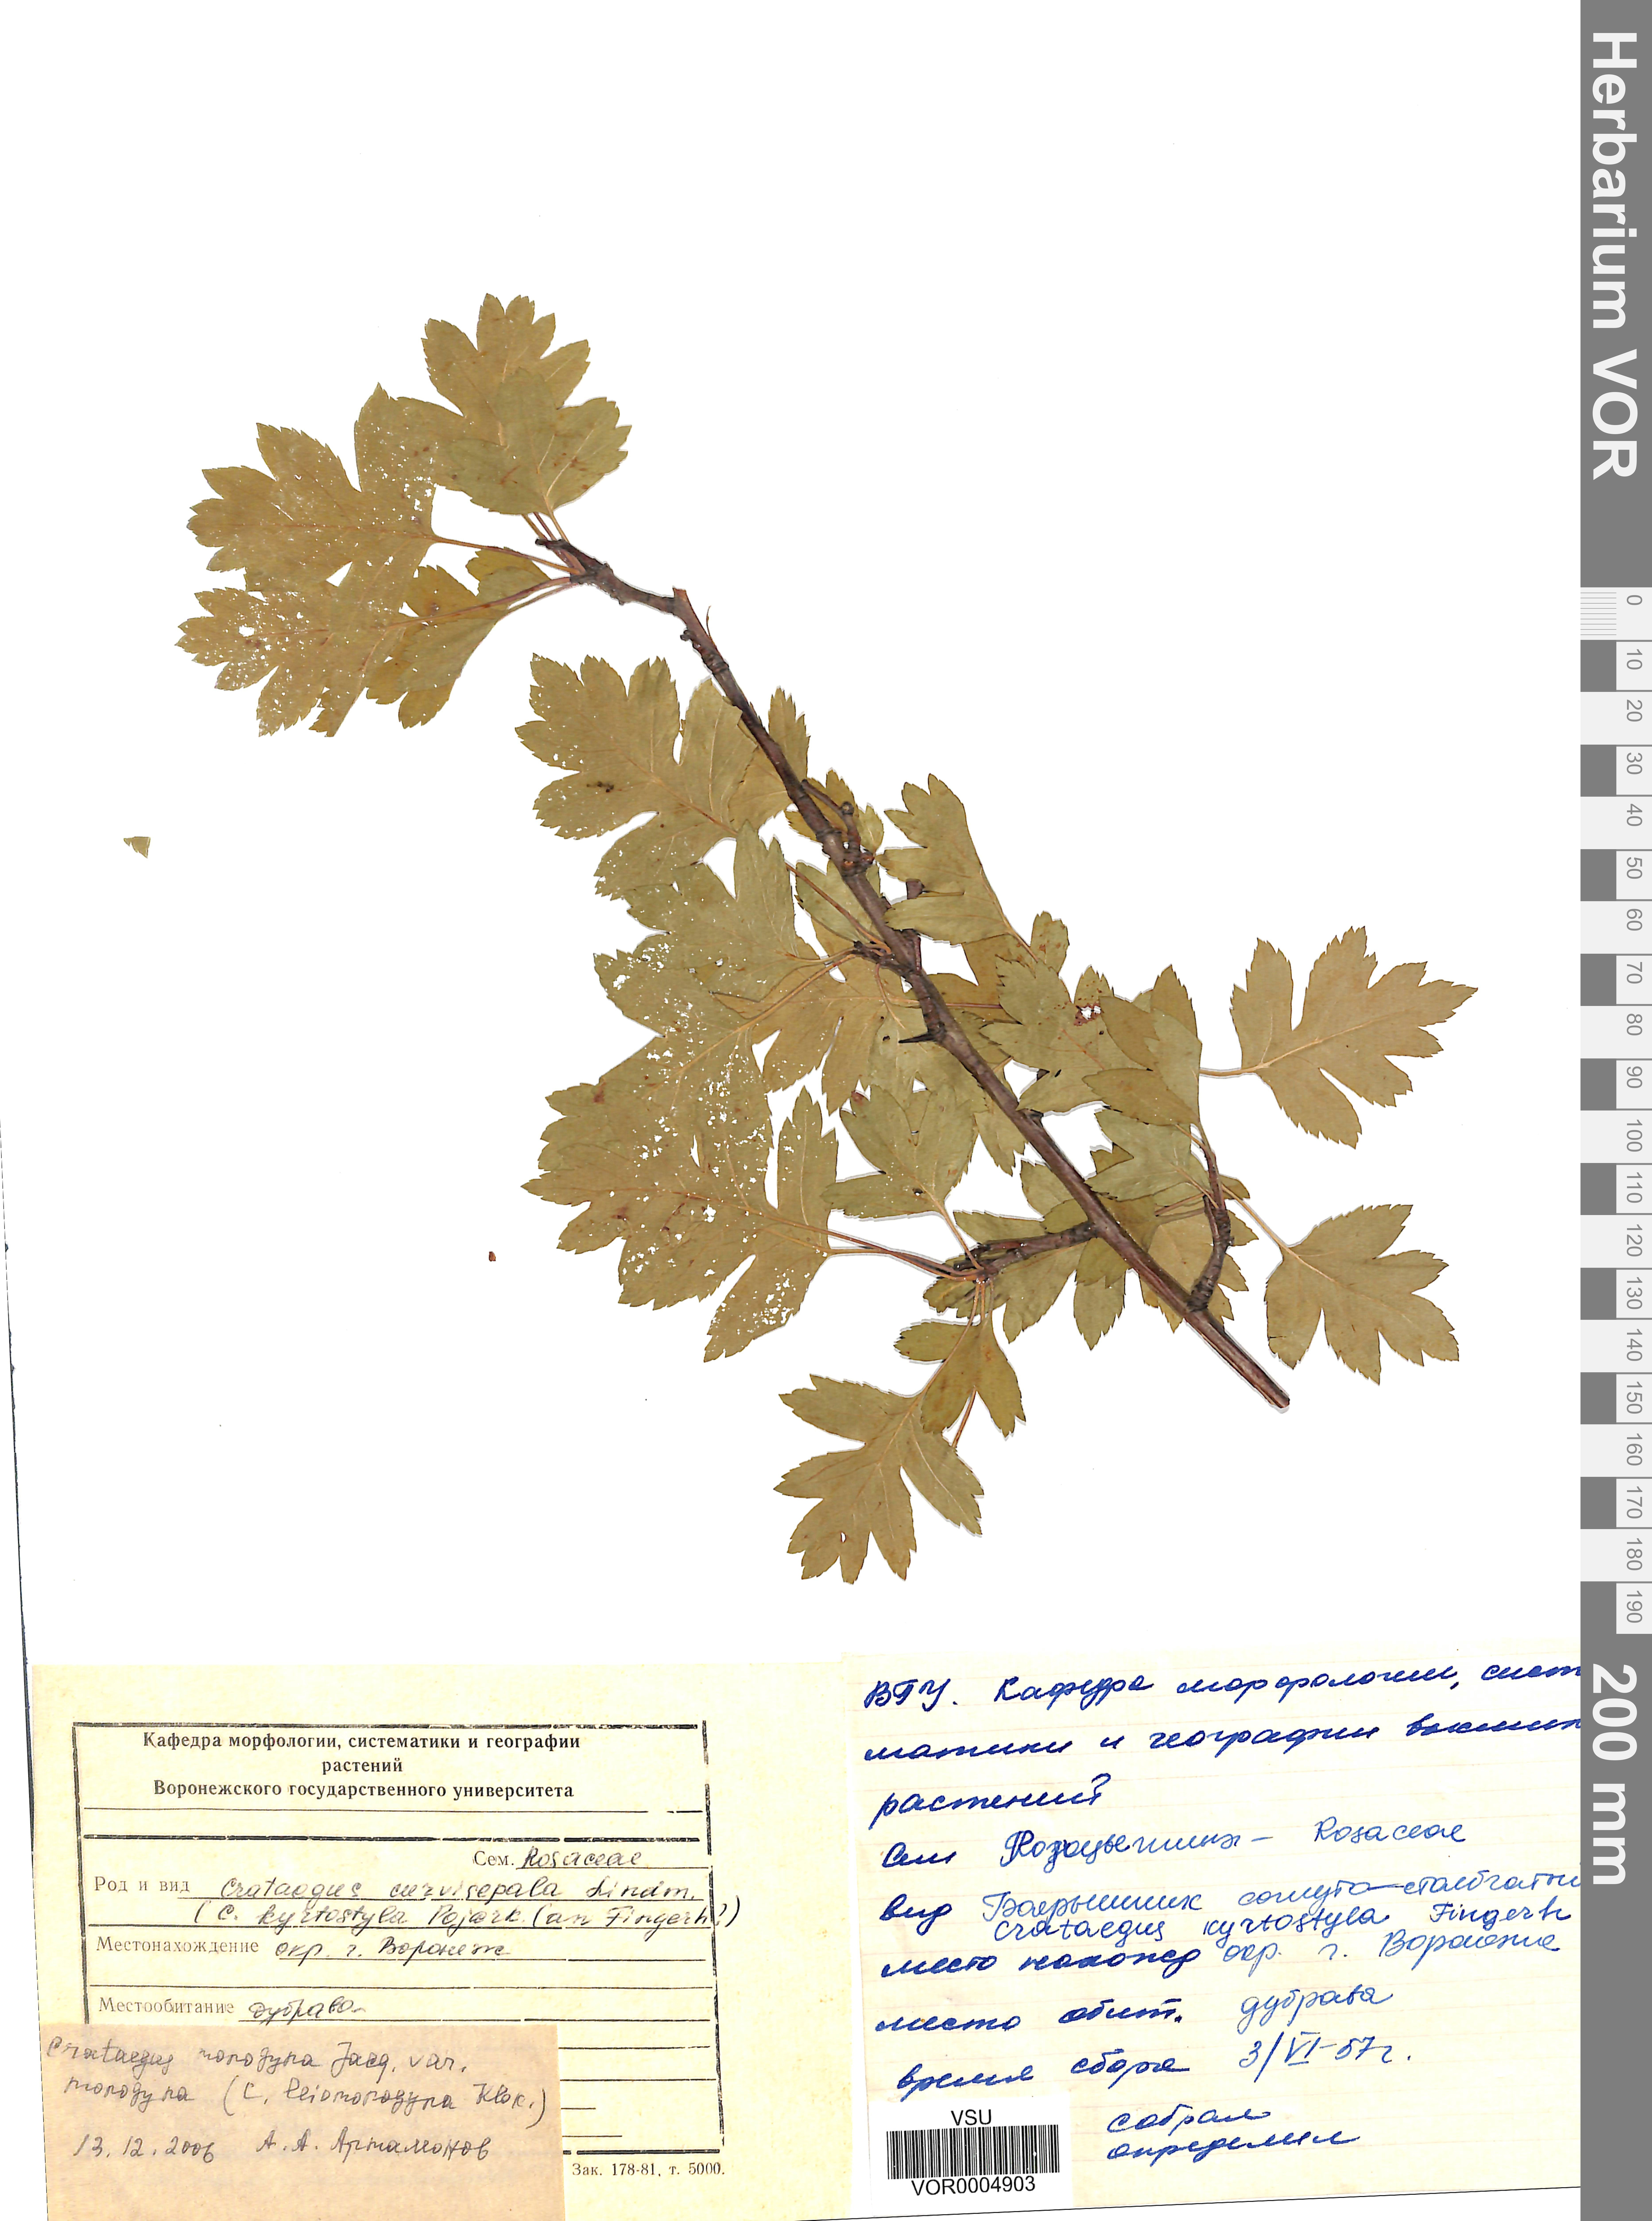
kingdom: Plantae
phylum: Tracheophyta
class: Magnoliopsida
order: Rosales
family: Rosaceae
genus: Crataegus
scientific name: Crataegus monogyna
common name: Hawthorn
